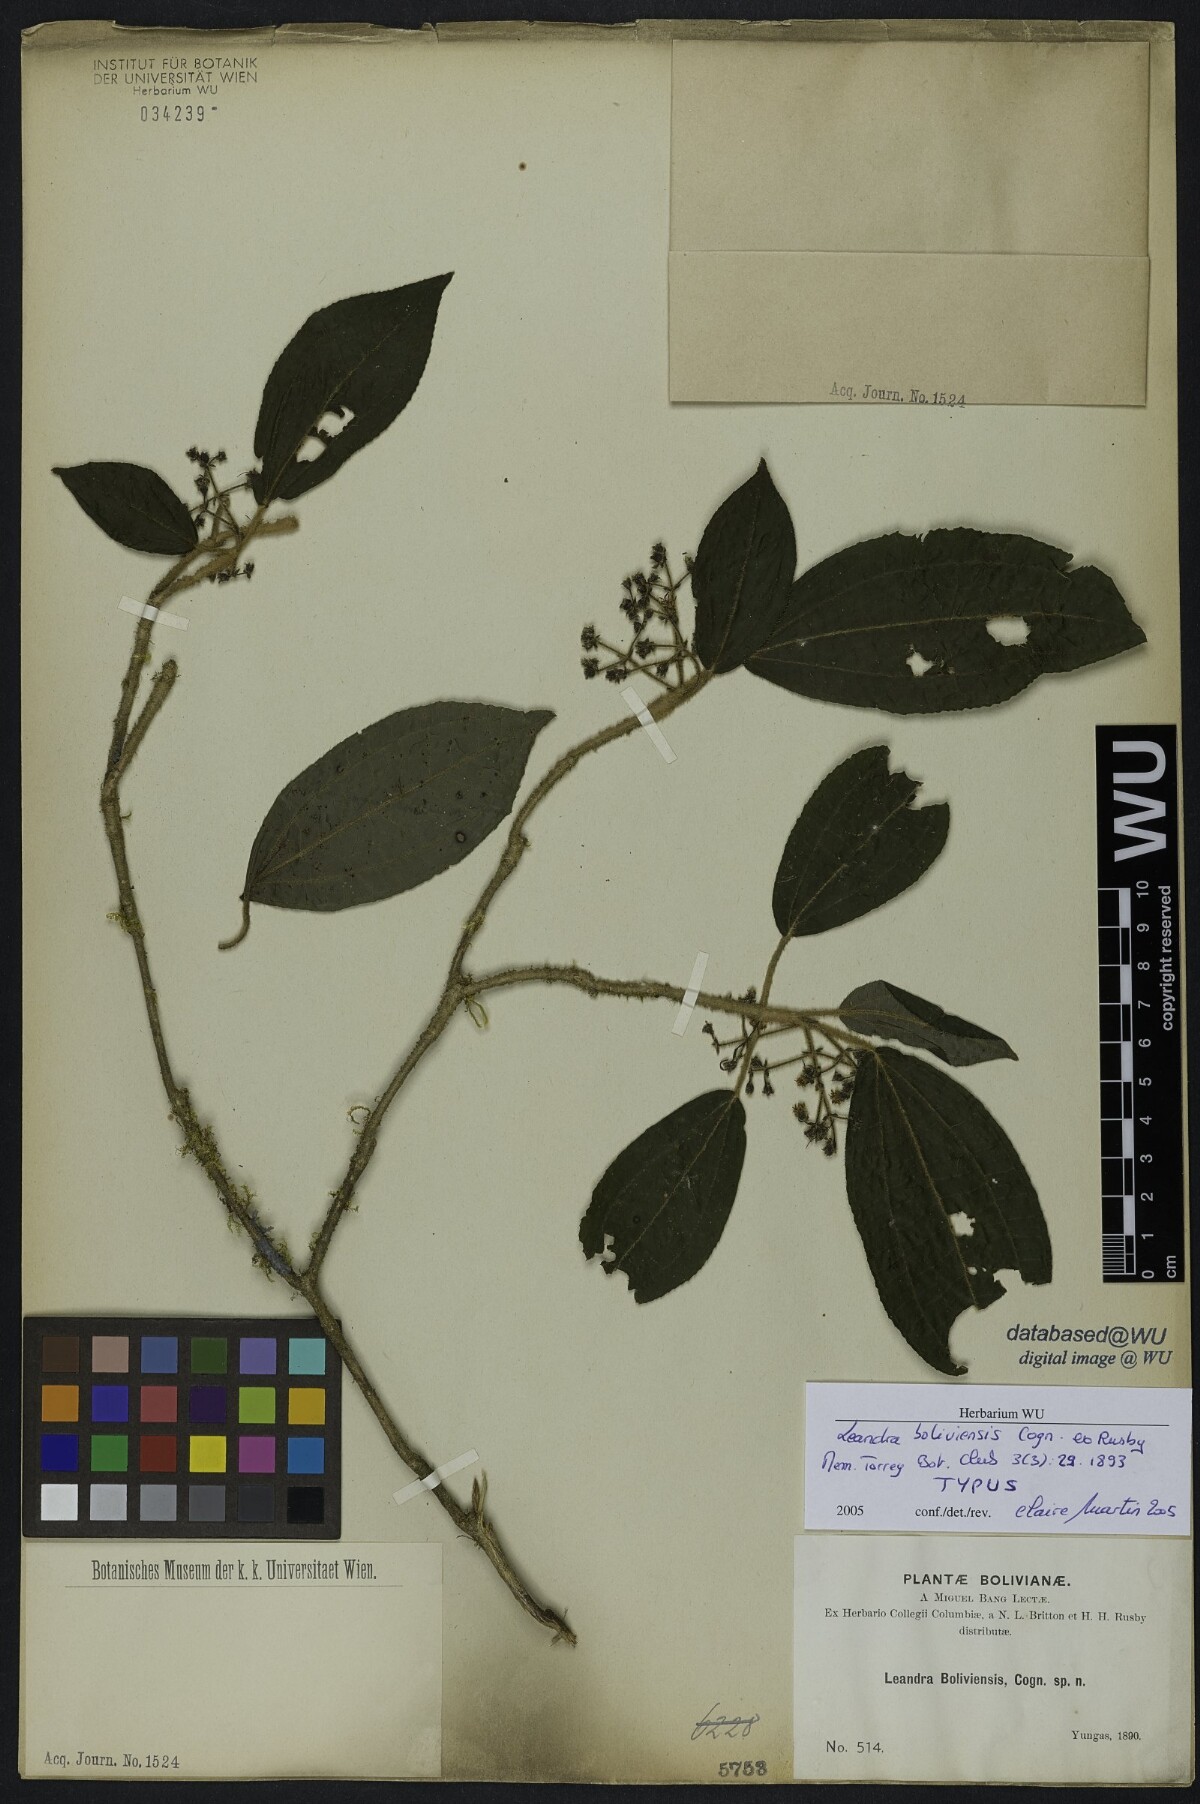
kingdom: Plantae
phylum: Tracheophyta
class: Magnoliopsida
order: Myrtales
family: Melastomataceae
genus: Miconia
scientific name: Miconia yungasensis
